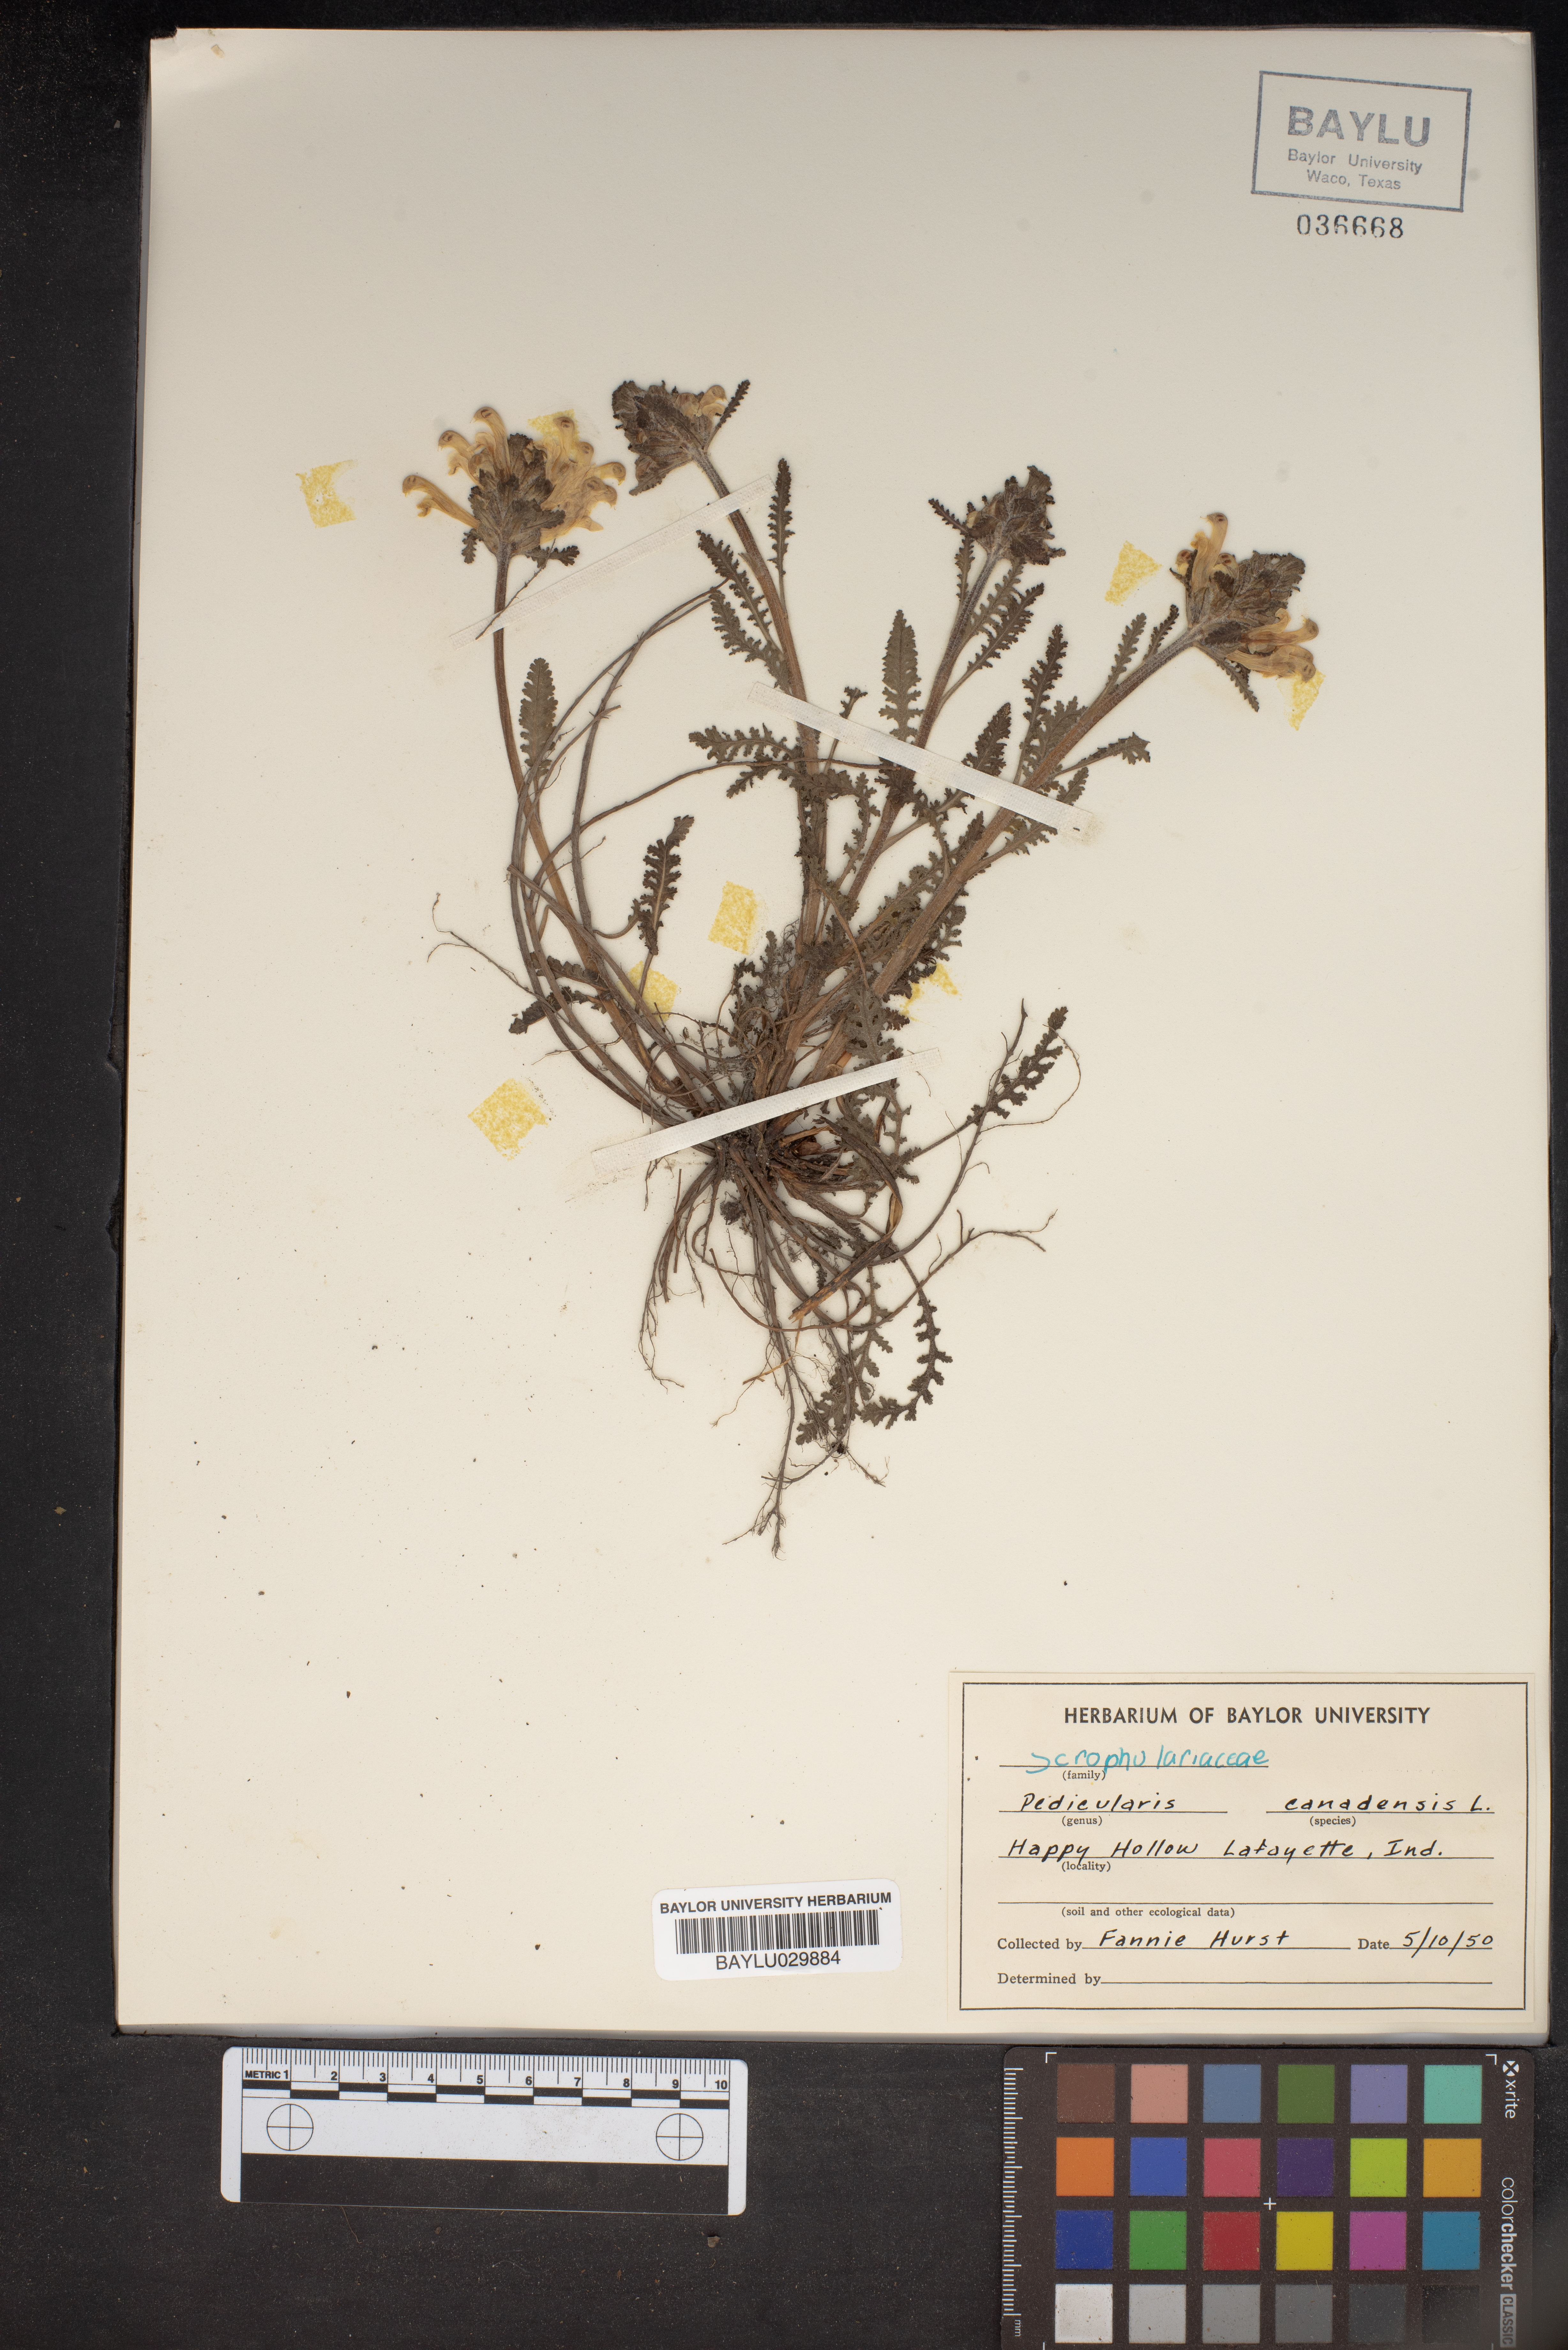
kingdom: Plantae
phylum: Tracheophyta
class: Magnoliopsida
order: Lamiales
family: Orobanchaceae
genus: Pedicularis
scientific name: Pedicularis canadensis
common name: Early lousewort
